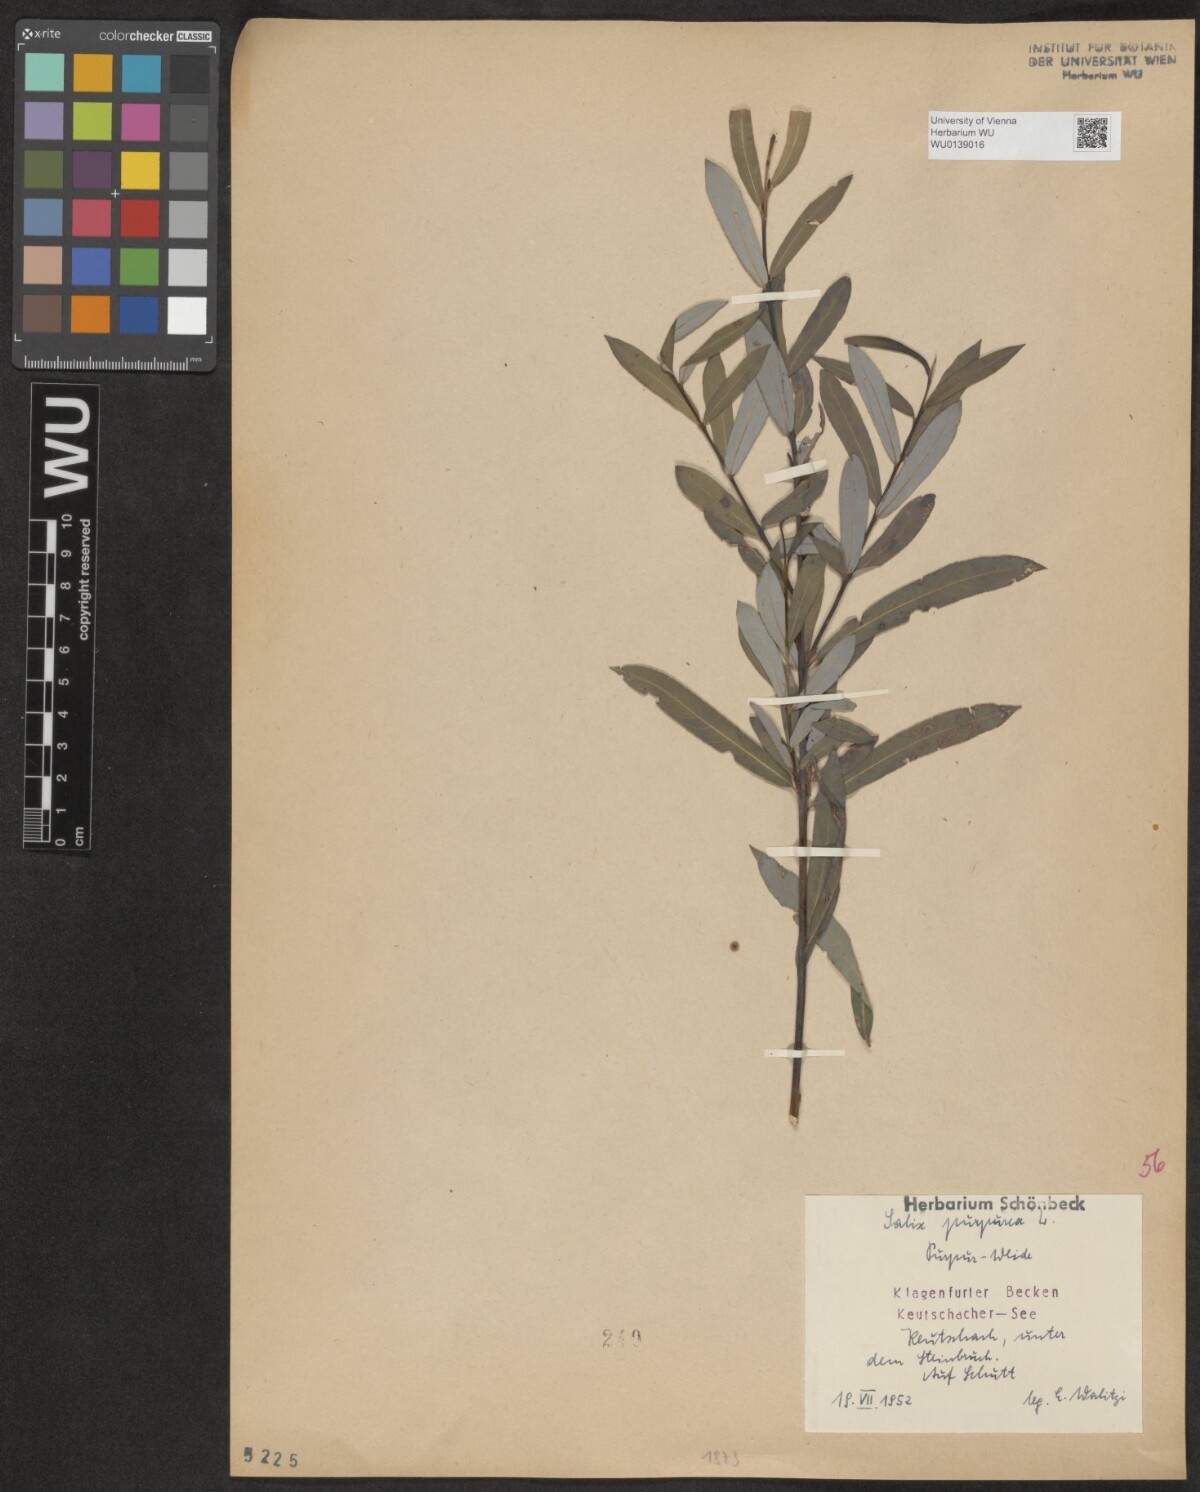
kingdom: Plantae
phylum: Tracheophyta
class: Magnoliopsida
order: Malpighiales
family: Salicaceae
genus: Salix
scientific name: Salix purpurea
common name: Purple willow
